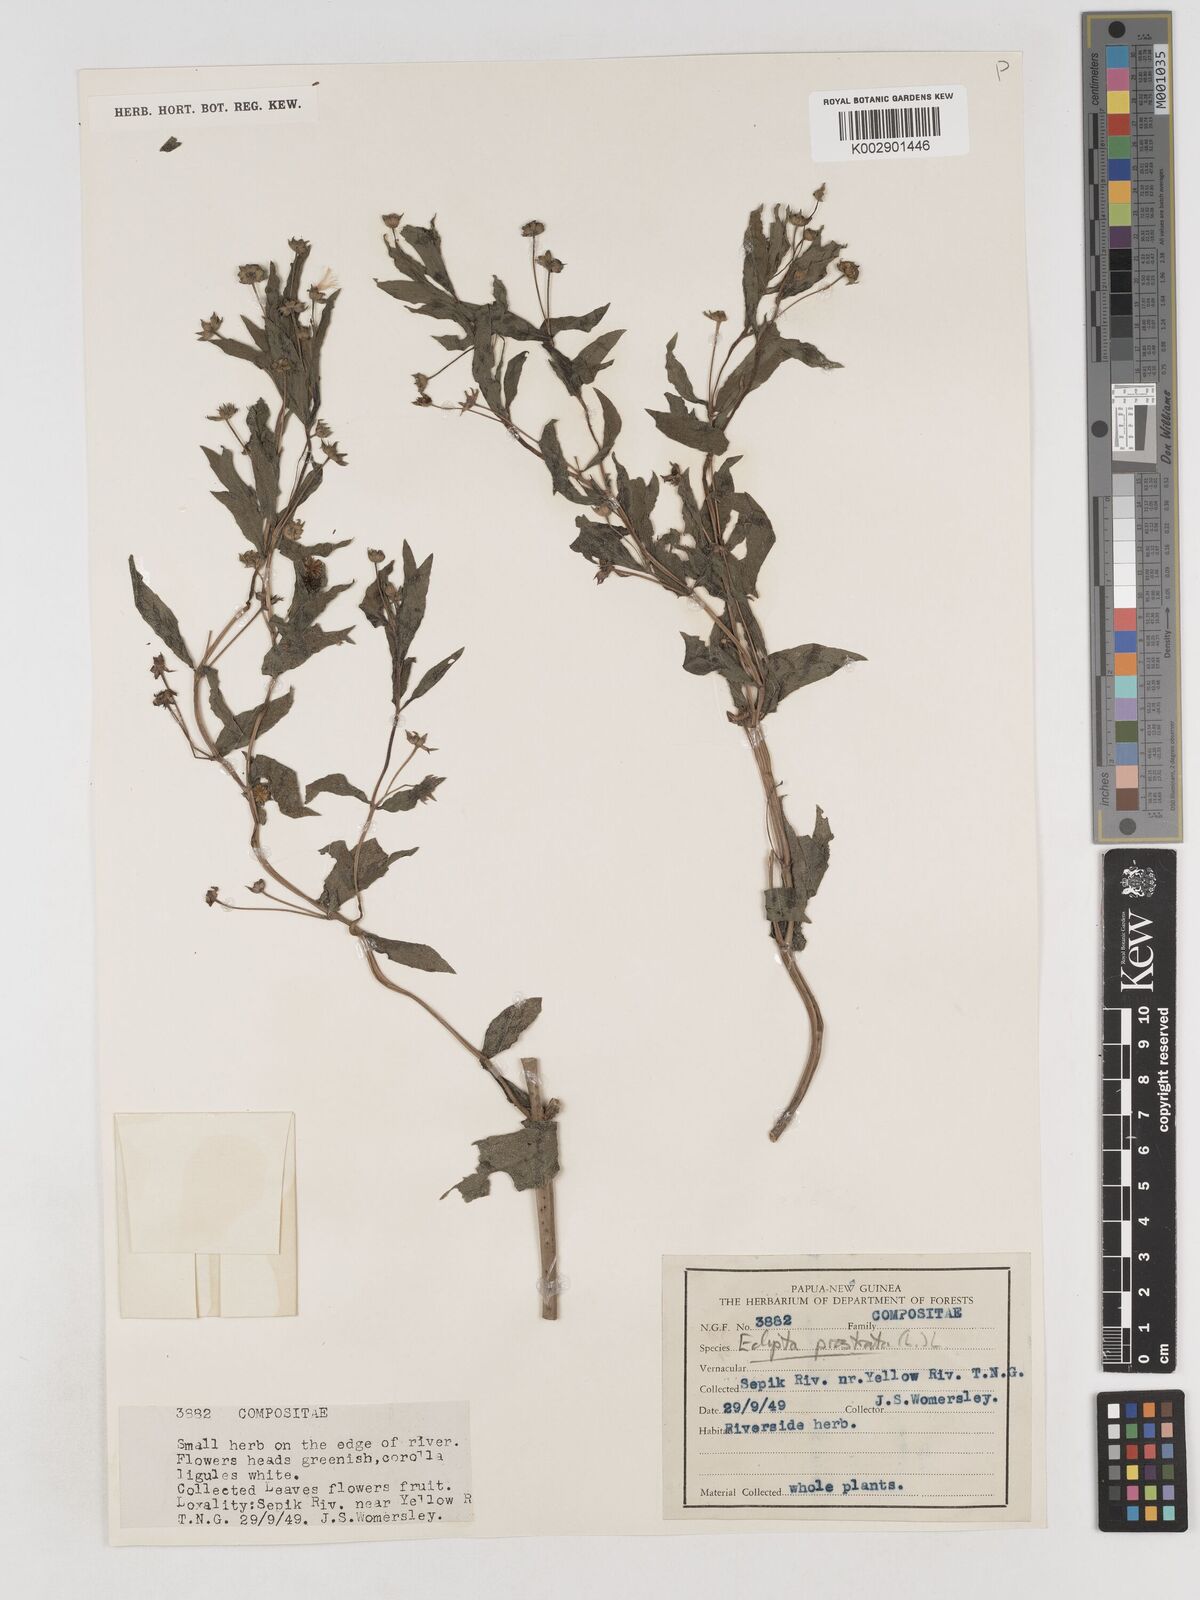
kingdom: Plantae
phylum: Tracheophyta
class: Magnoliopsida
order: Asterales
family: Asteraceae
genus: Eclipta
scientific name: Eclipta prostrata
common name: False daisy
